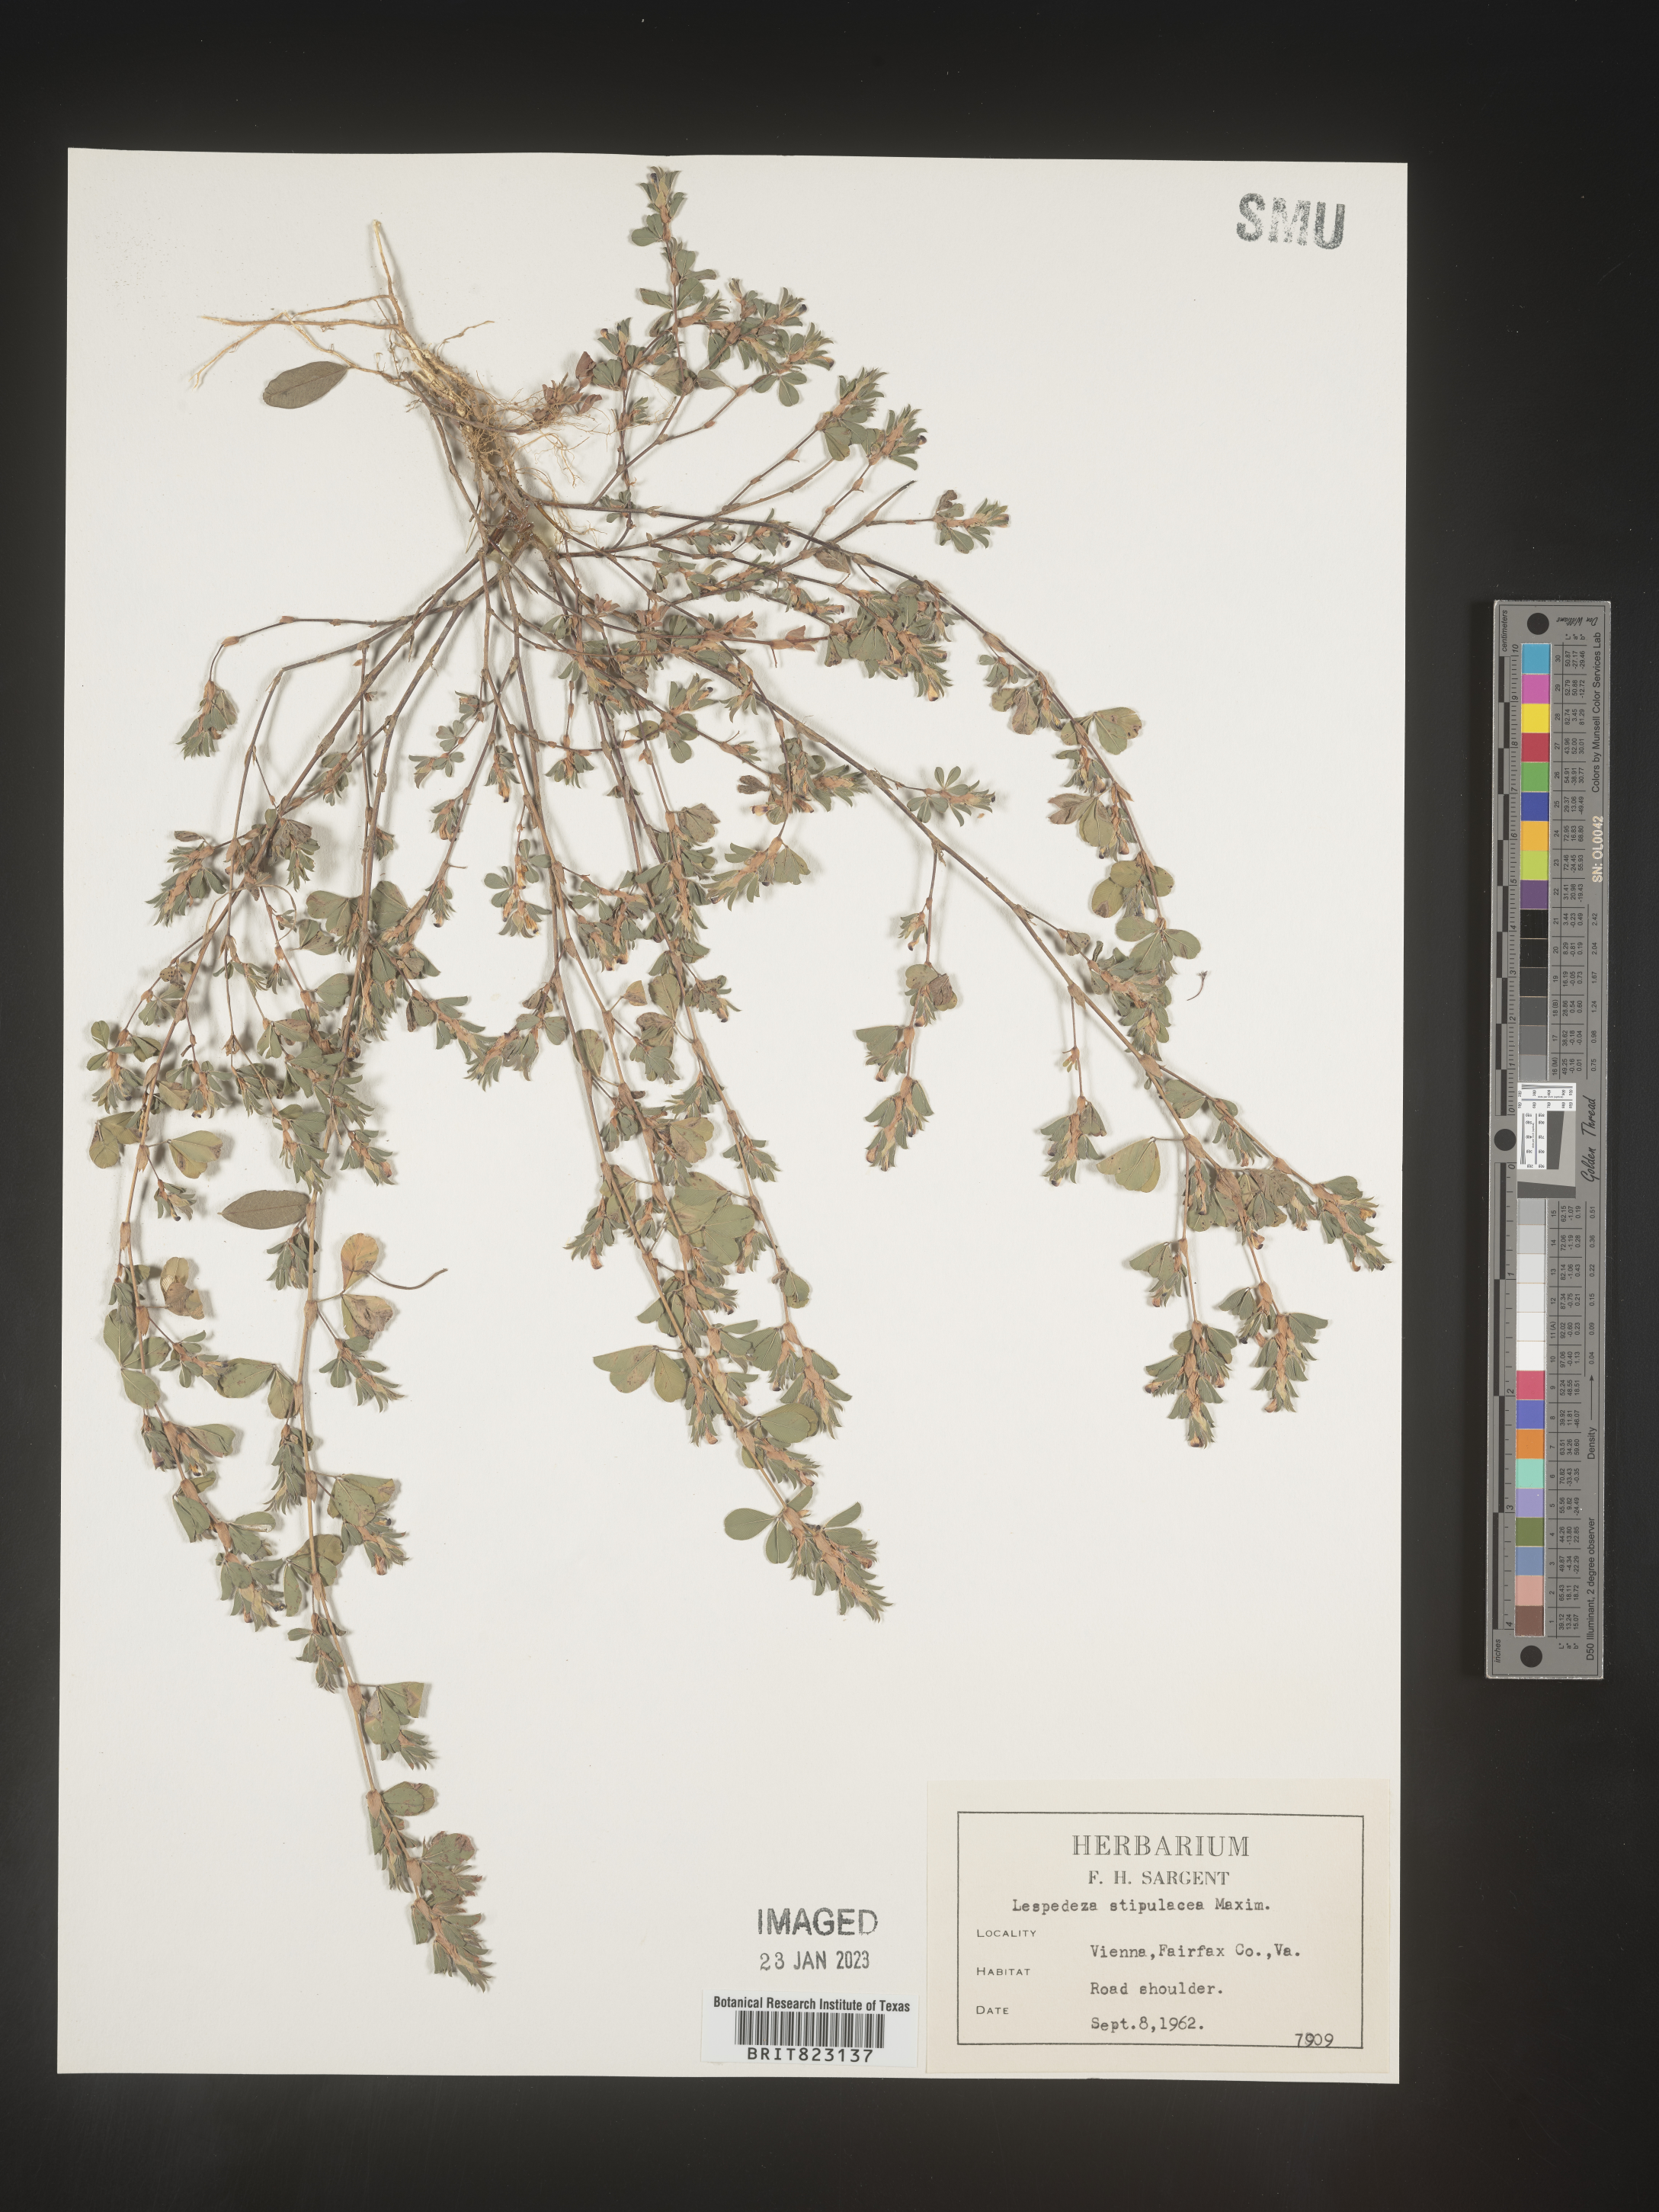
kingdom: Plantae
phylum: Tracheophyta
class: Magnoliopsida
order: Fabales
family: Fabaceae
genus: Lespedeza
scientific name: Lespedeza
